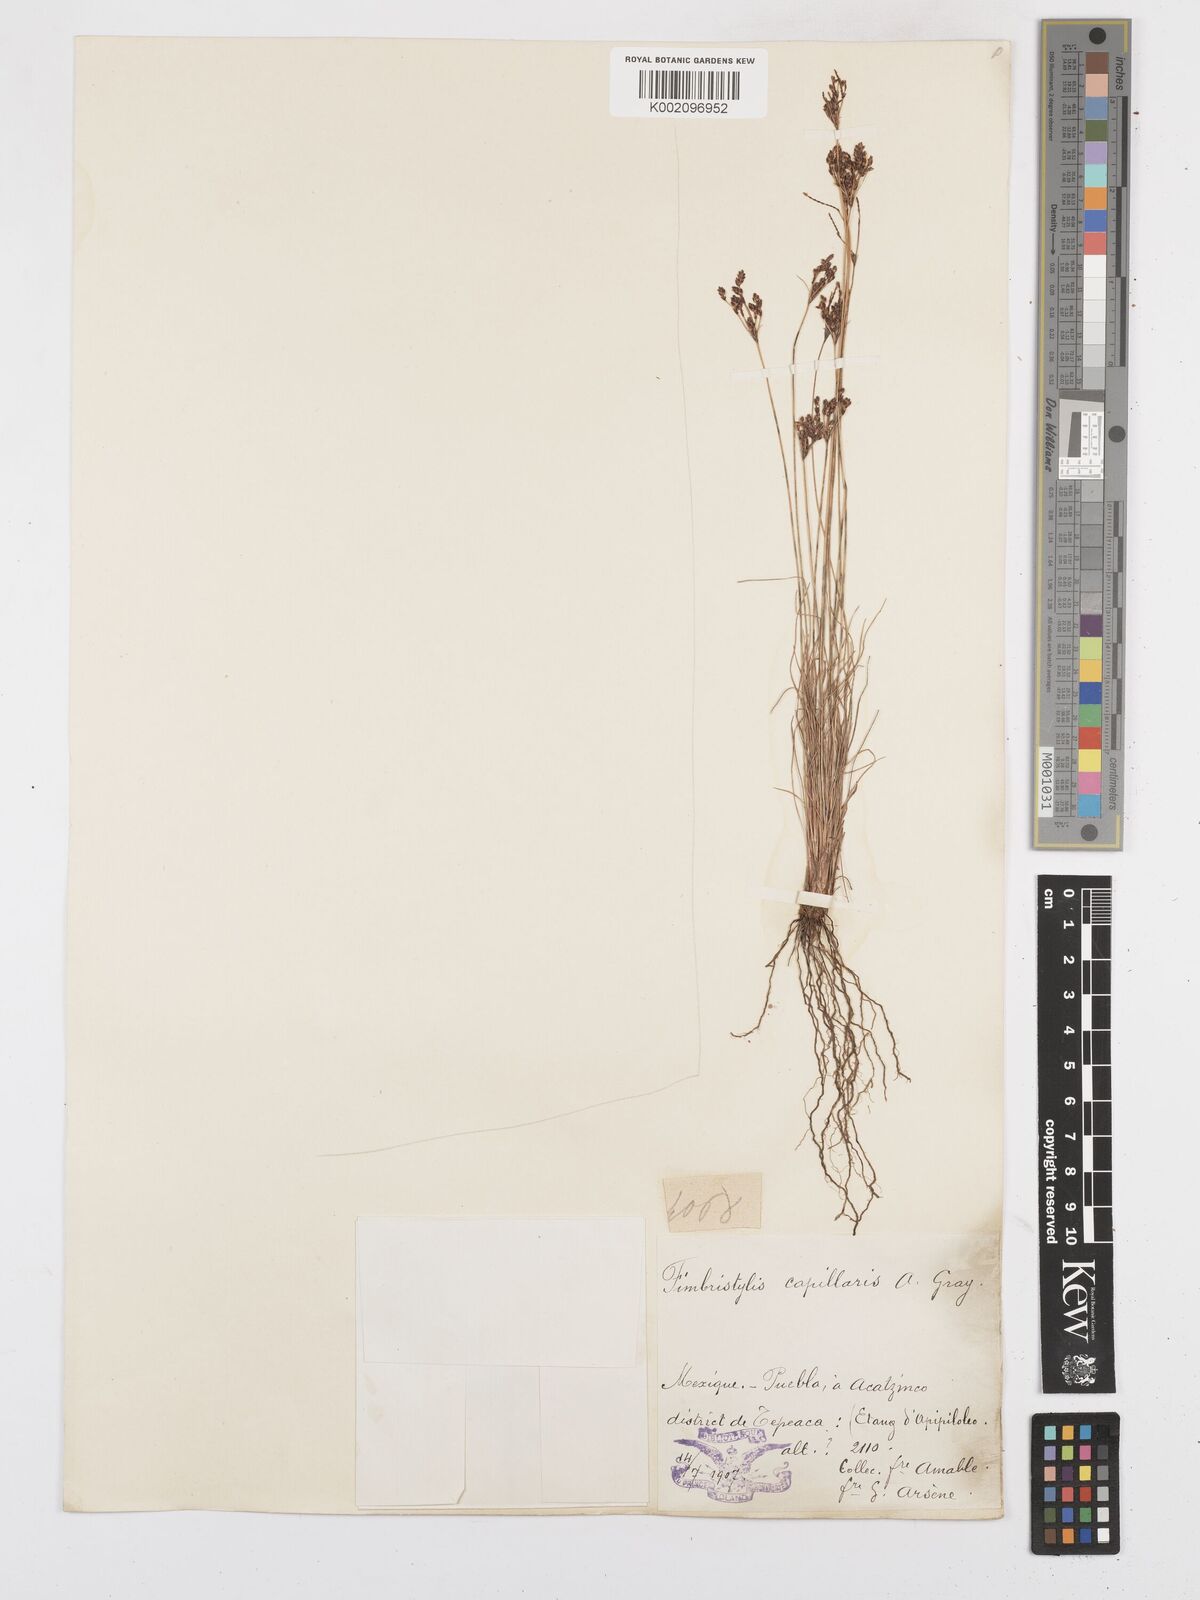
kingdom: Plantae
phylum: Tracheophyta
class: Liliopsida
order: Poales
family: Cyperaceae
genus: Bulbostylis
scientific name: Bulbostylis capillaris
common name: Densetuft hairsedge
